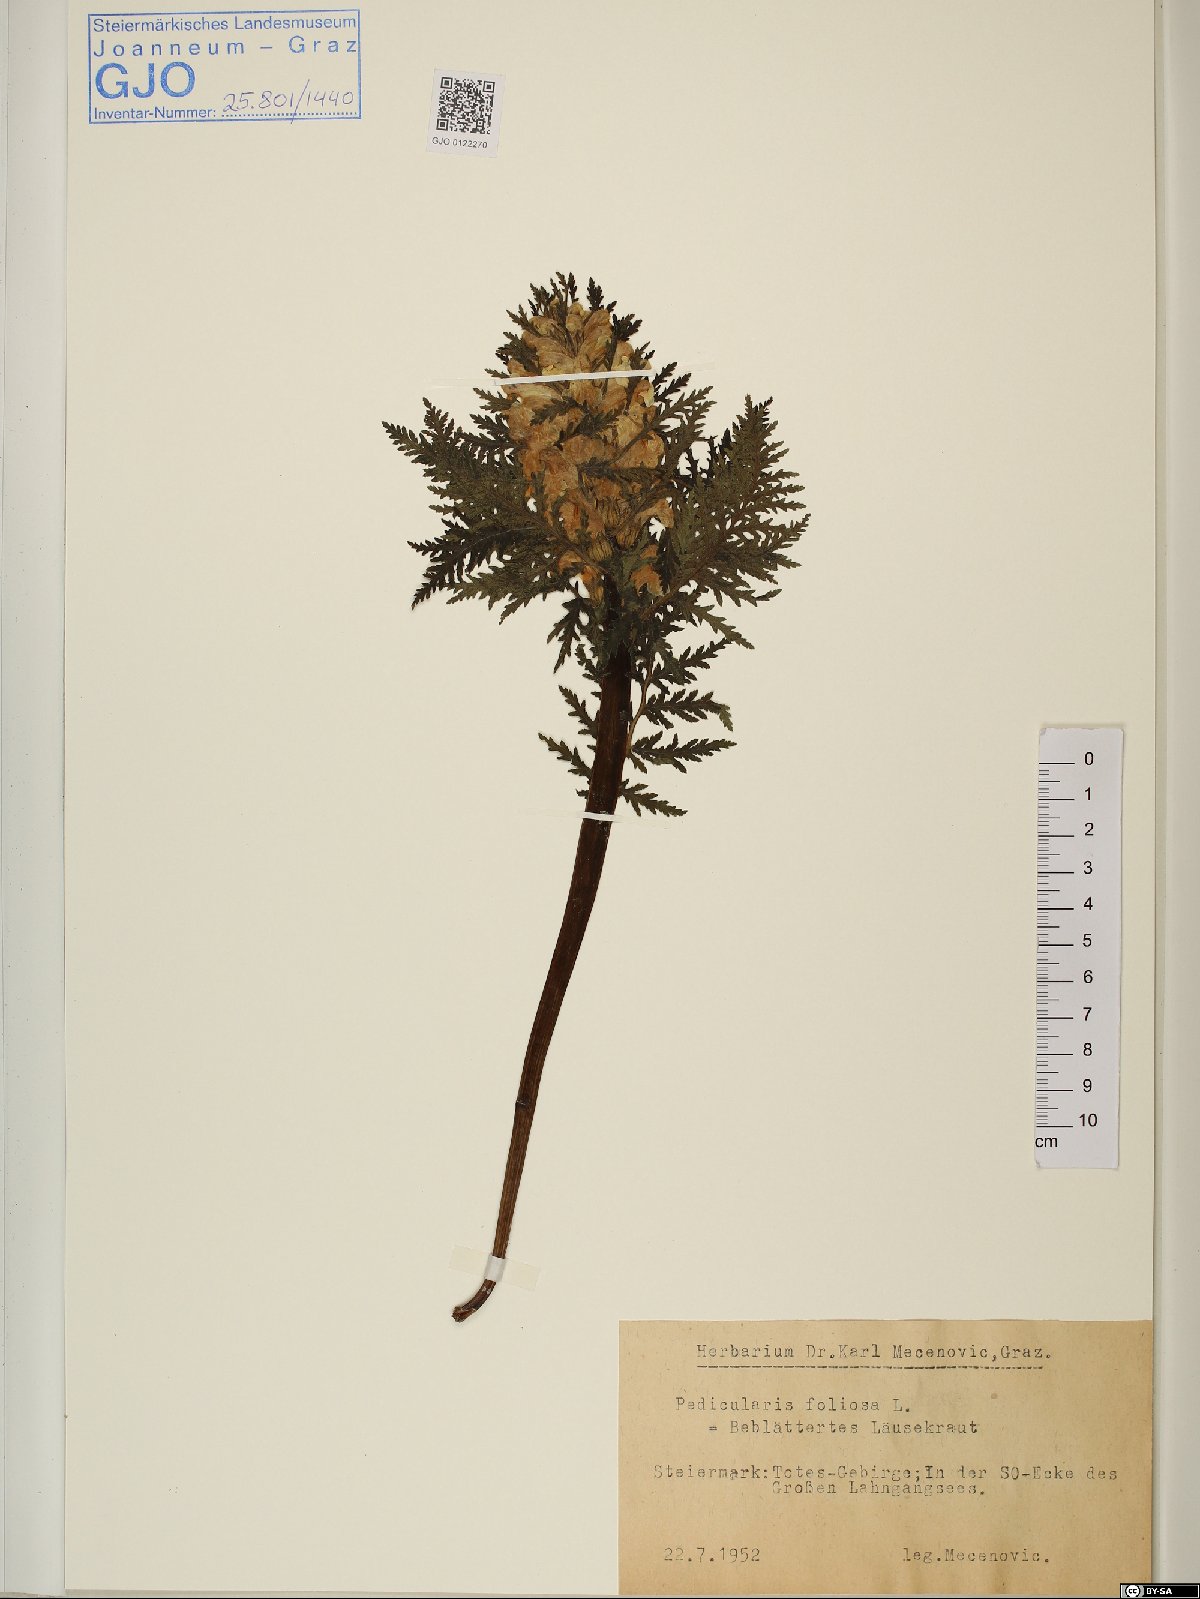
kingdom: Plantae
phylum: Tracheophyta
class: Magnoliopsida
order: Lamiales
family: Orobanchaceae
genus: Pedicularis
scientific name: Pedicularis foliosa
